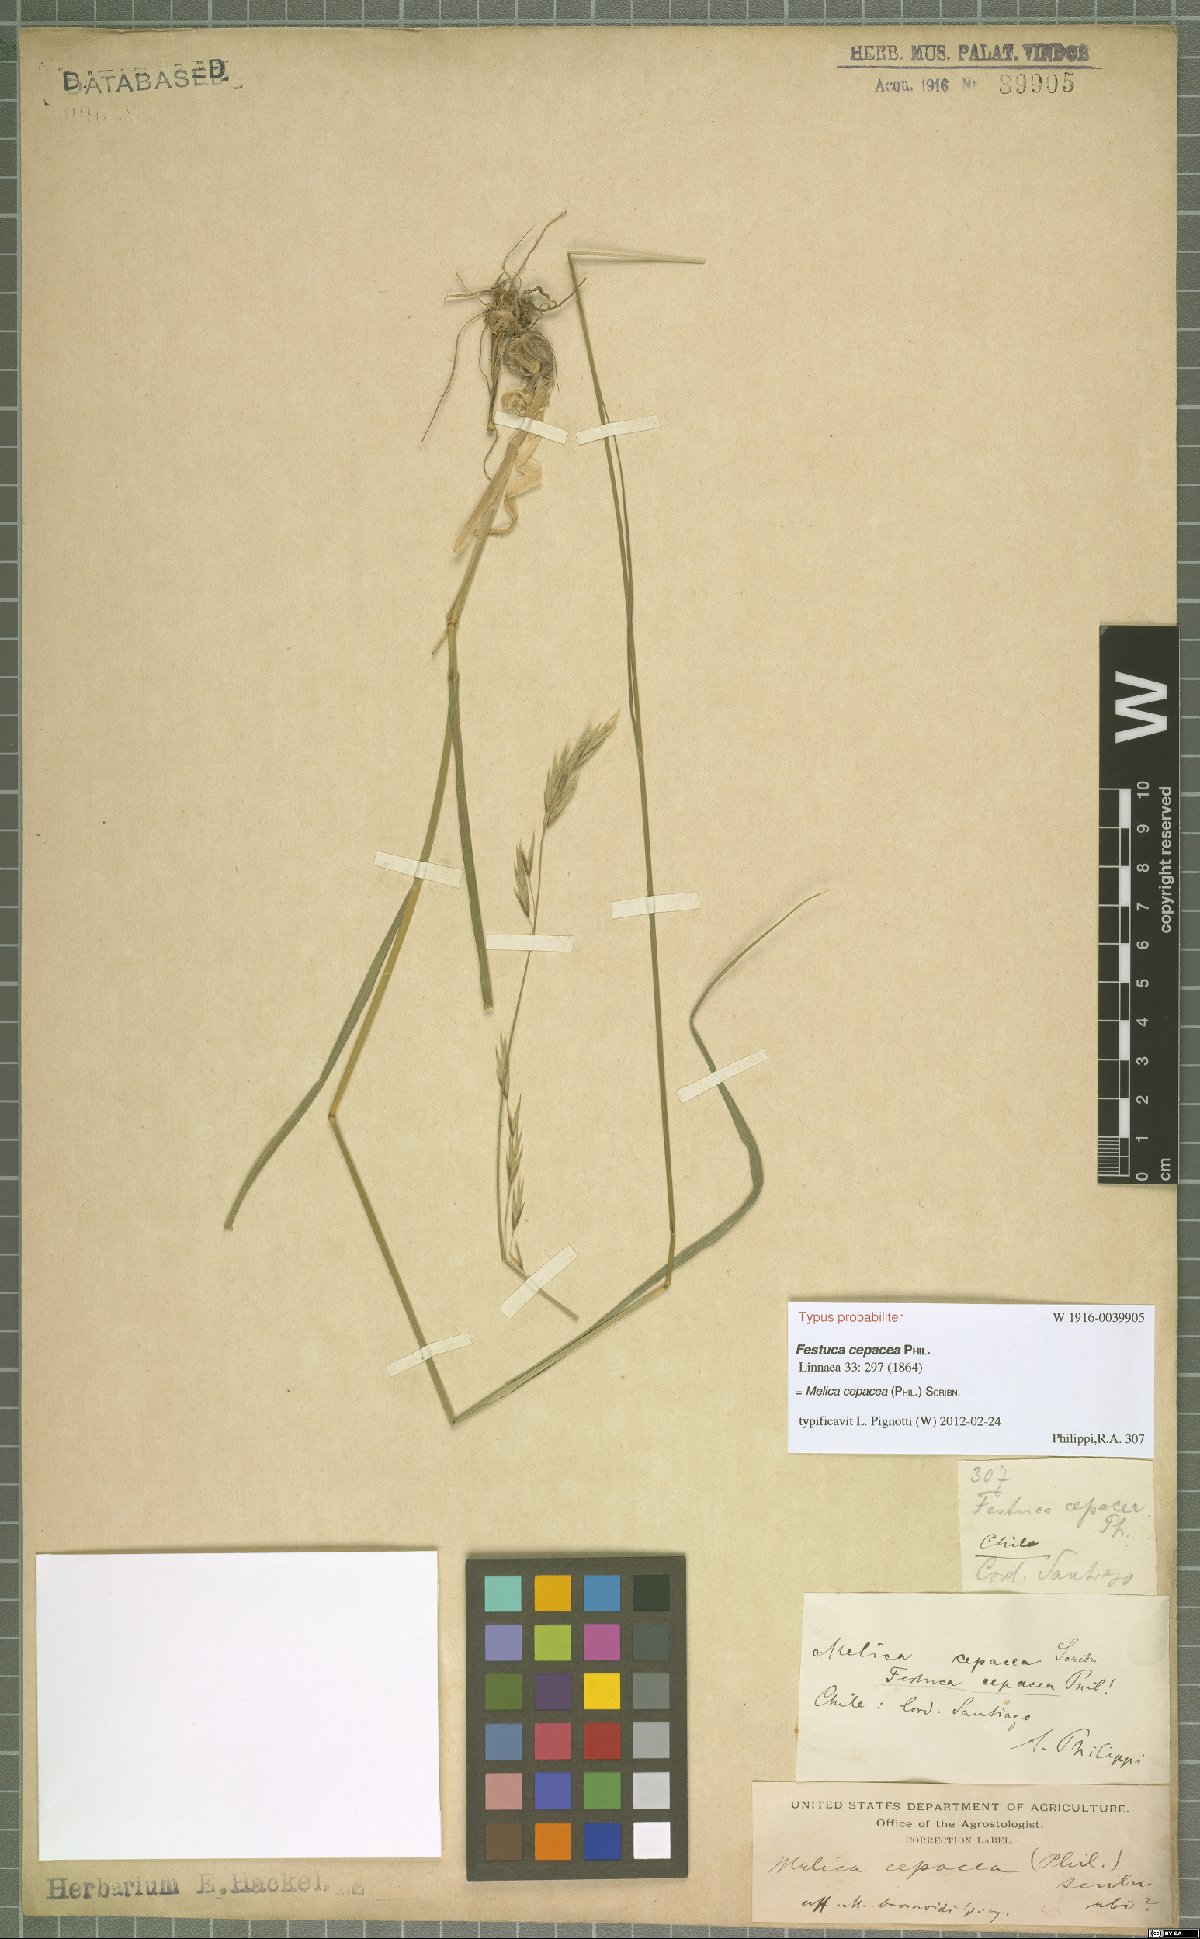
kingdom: Plantae
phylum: Tracheophyta
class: Liliopsida
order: Poales
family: Poaceae
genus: Melica
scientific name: Melica cepacea
